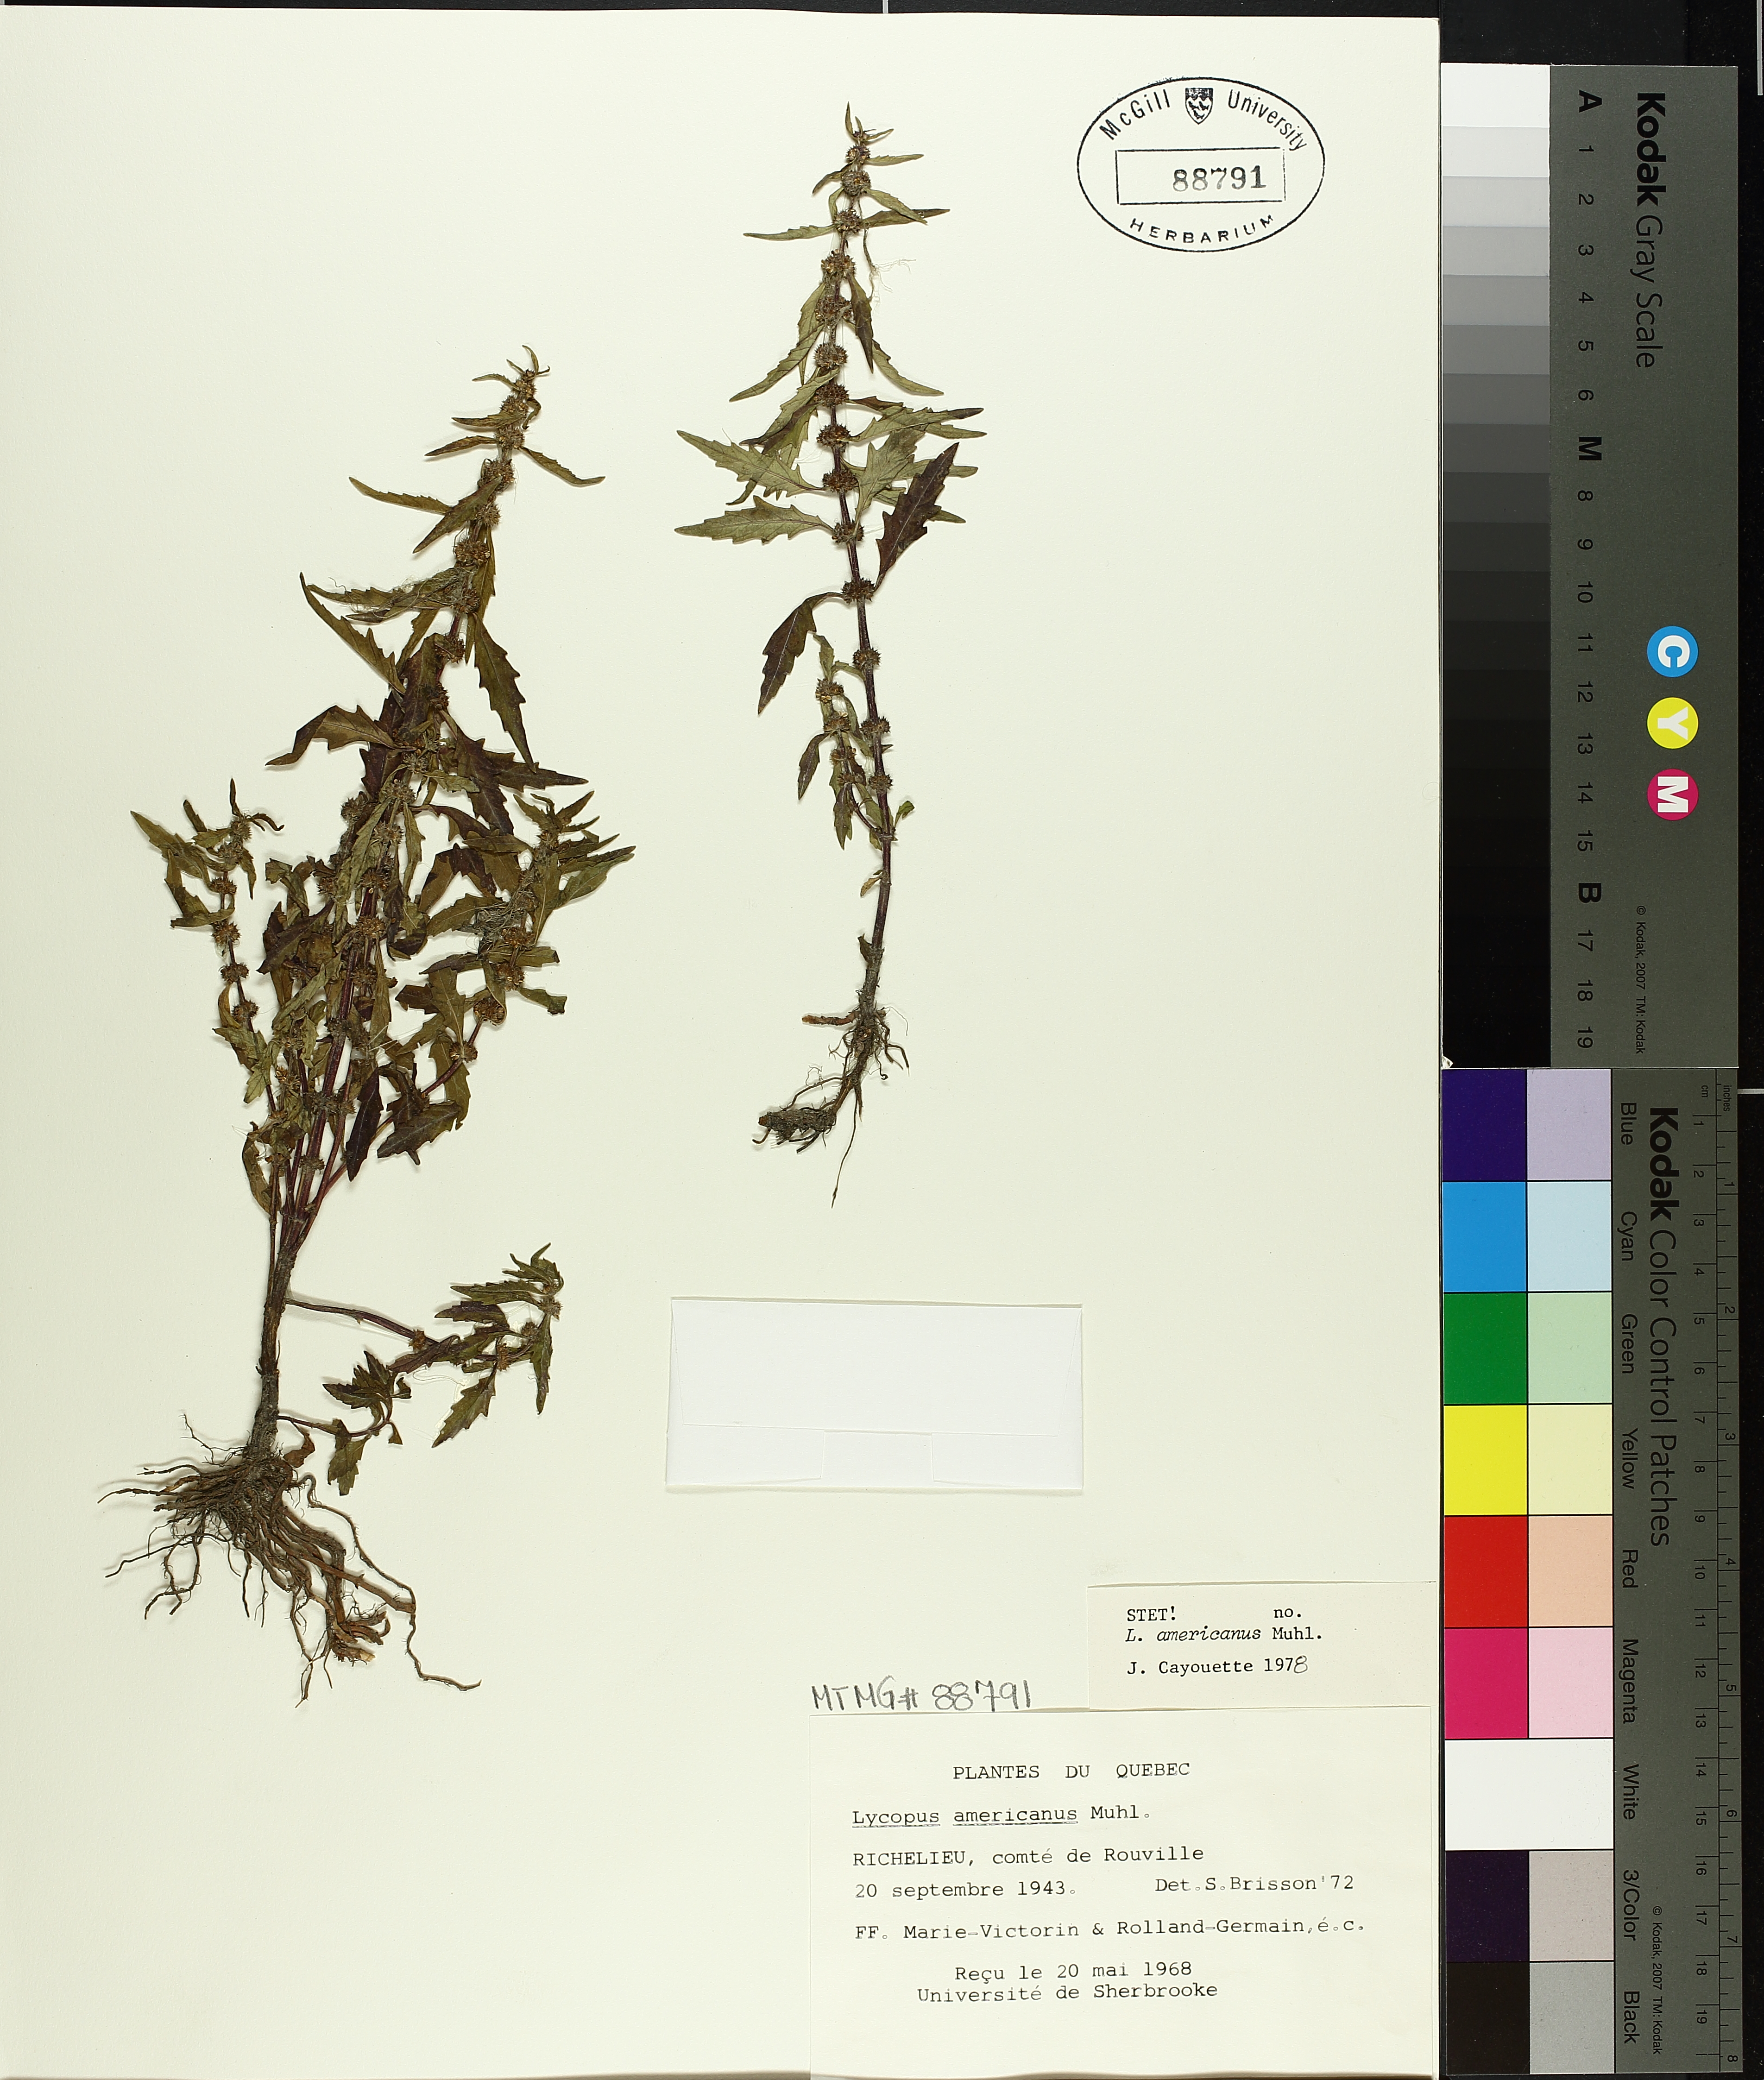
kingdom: Plantae
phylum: Tracheophyta
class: Magnoliopsida
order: Lamiales
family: Lamiaceae
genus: Lycopus
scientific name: Lycopus americanus
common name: American bugleweed
